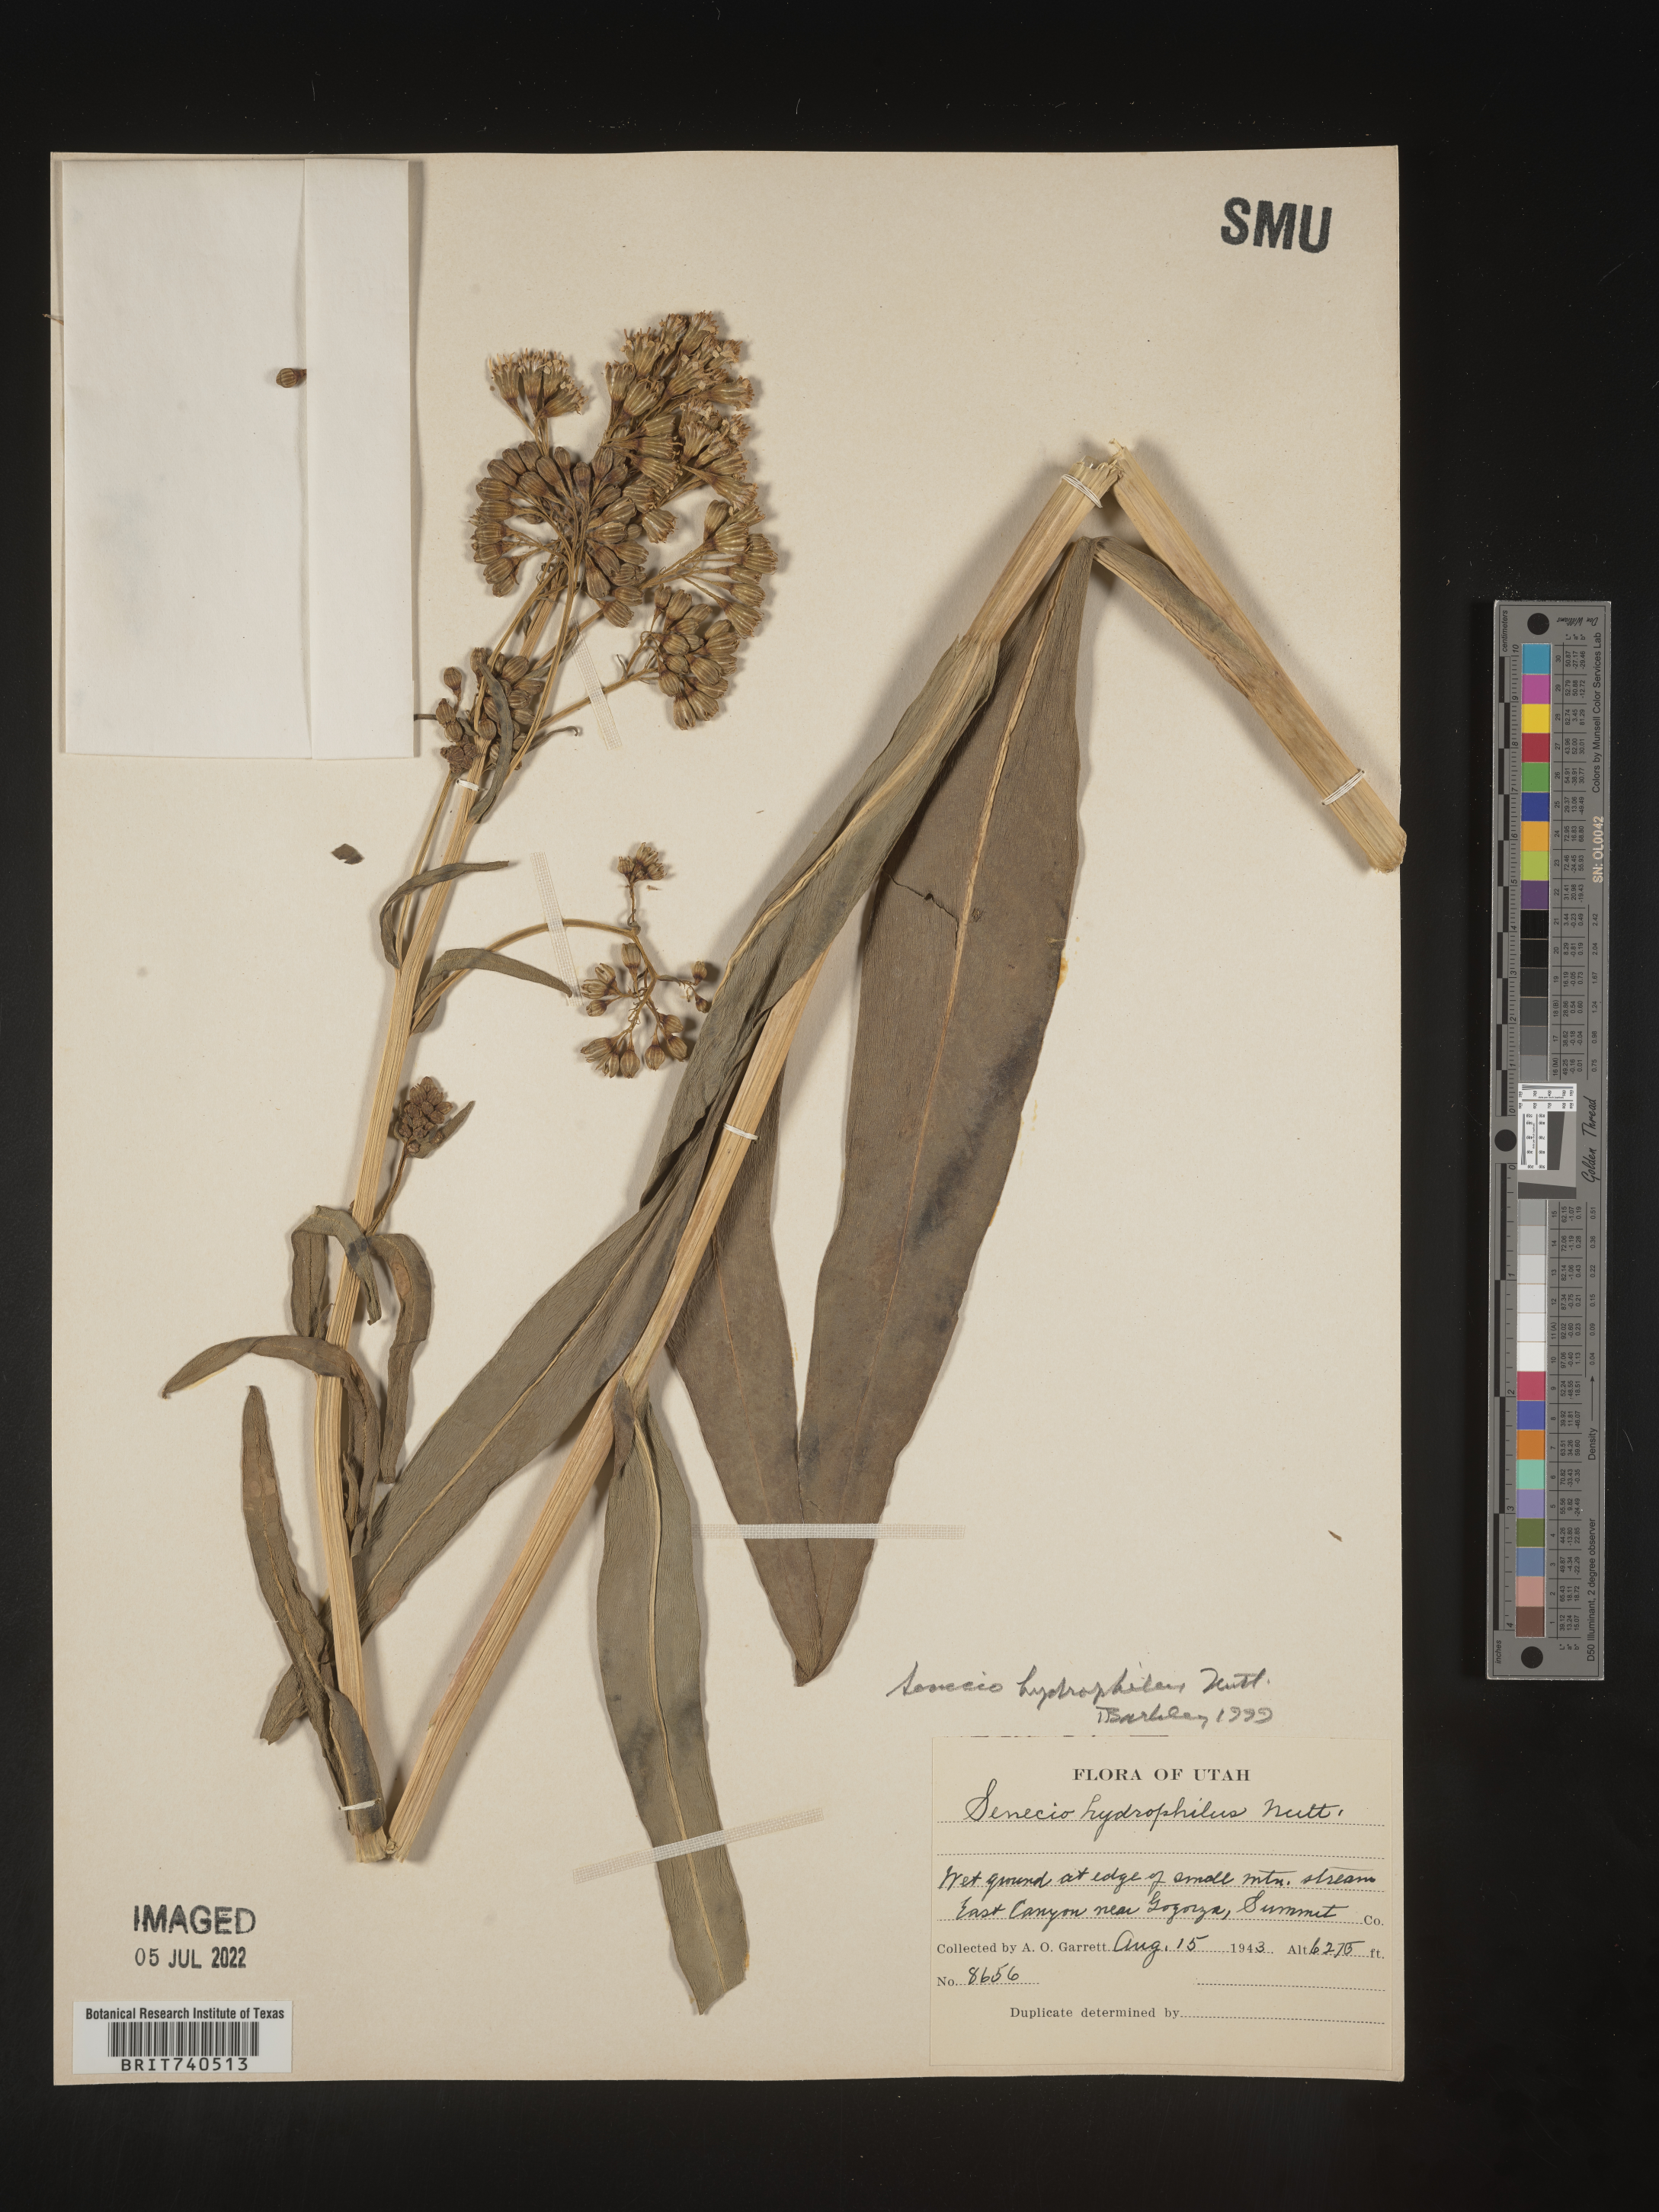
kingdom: Plantae
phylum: Tracheophyta
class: Magnoliopsida
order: Asterales
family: Asteraceae
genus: Senecio
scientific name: Senecio hydrophilus
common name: Water ragwort
